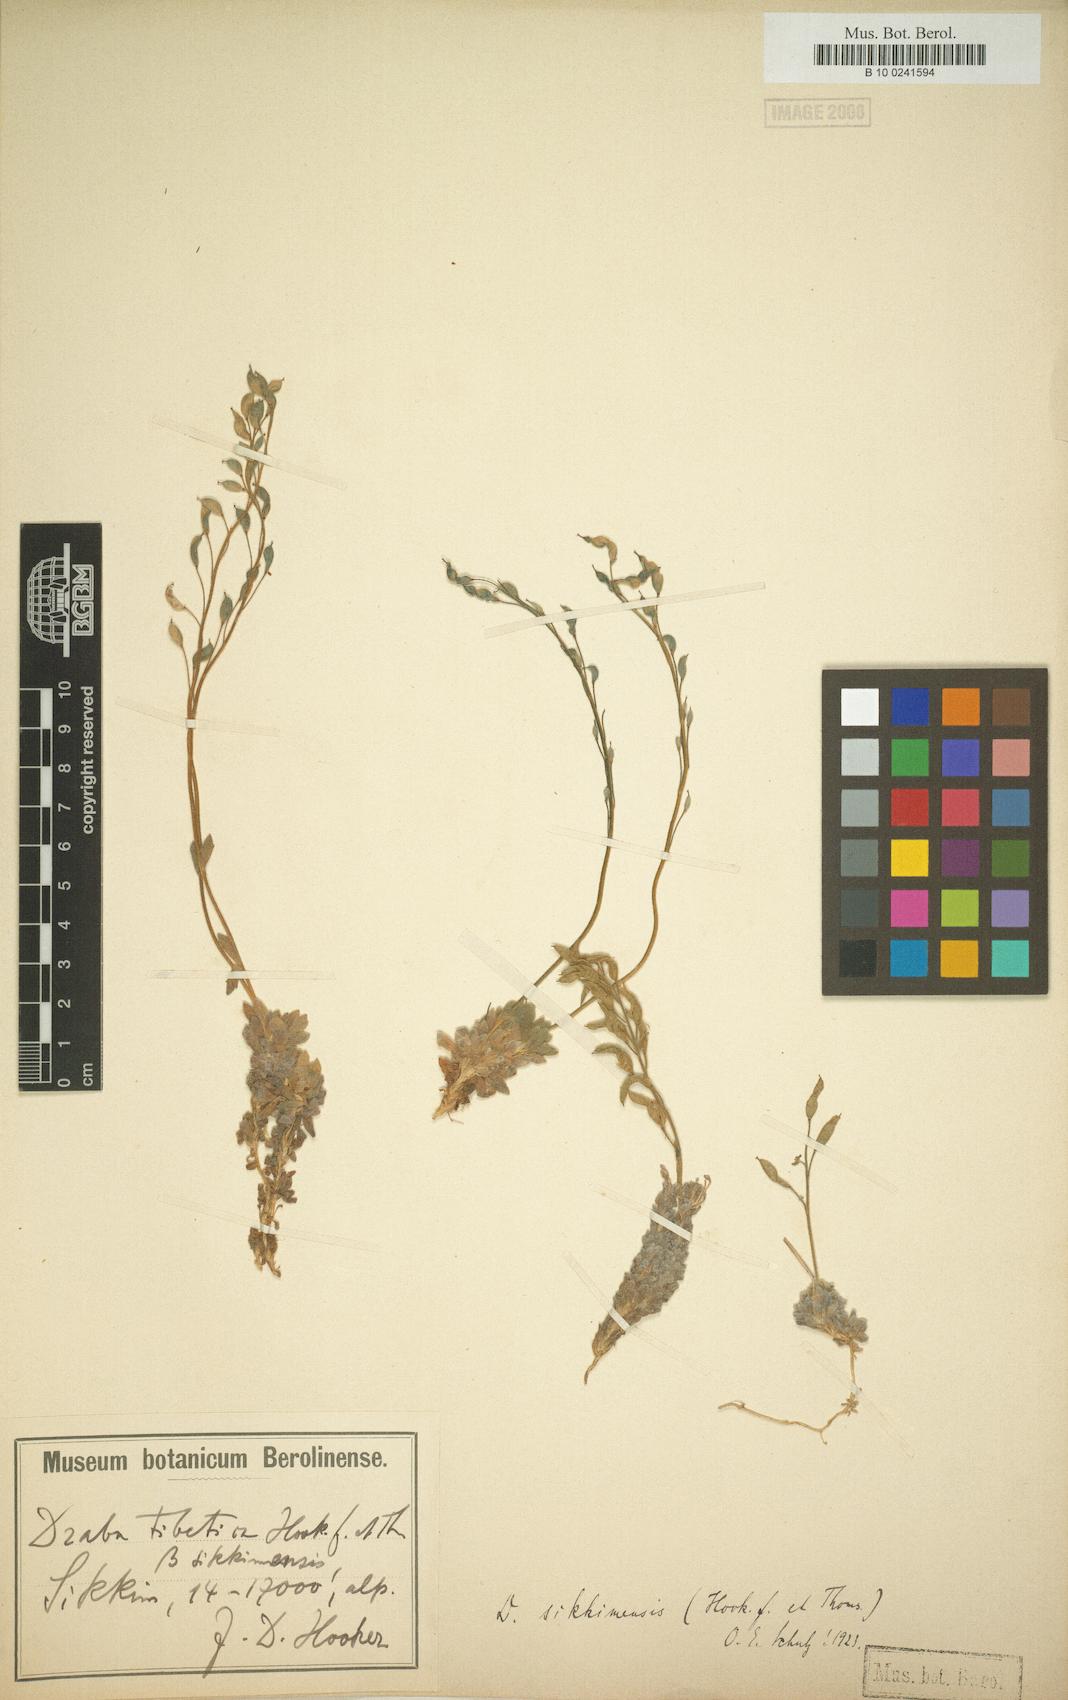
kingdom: Plantae
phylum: Tracheophyta
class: Magnoliopsida
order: Brassicales
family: Brassicaceae
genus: Draba
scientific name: Draba sikkimensis
